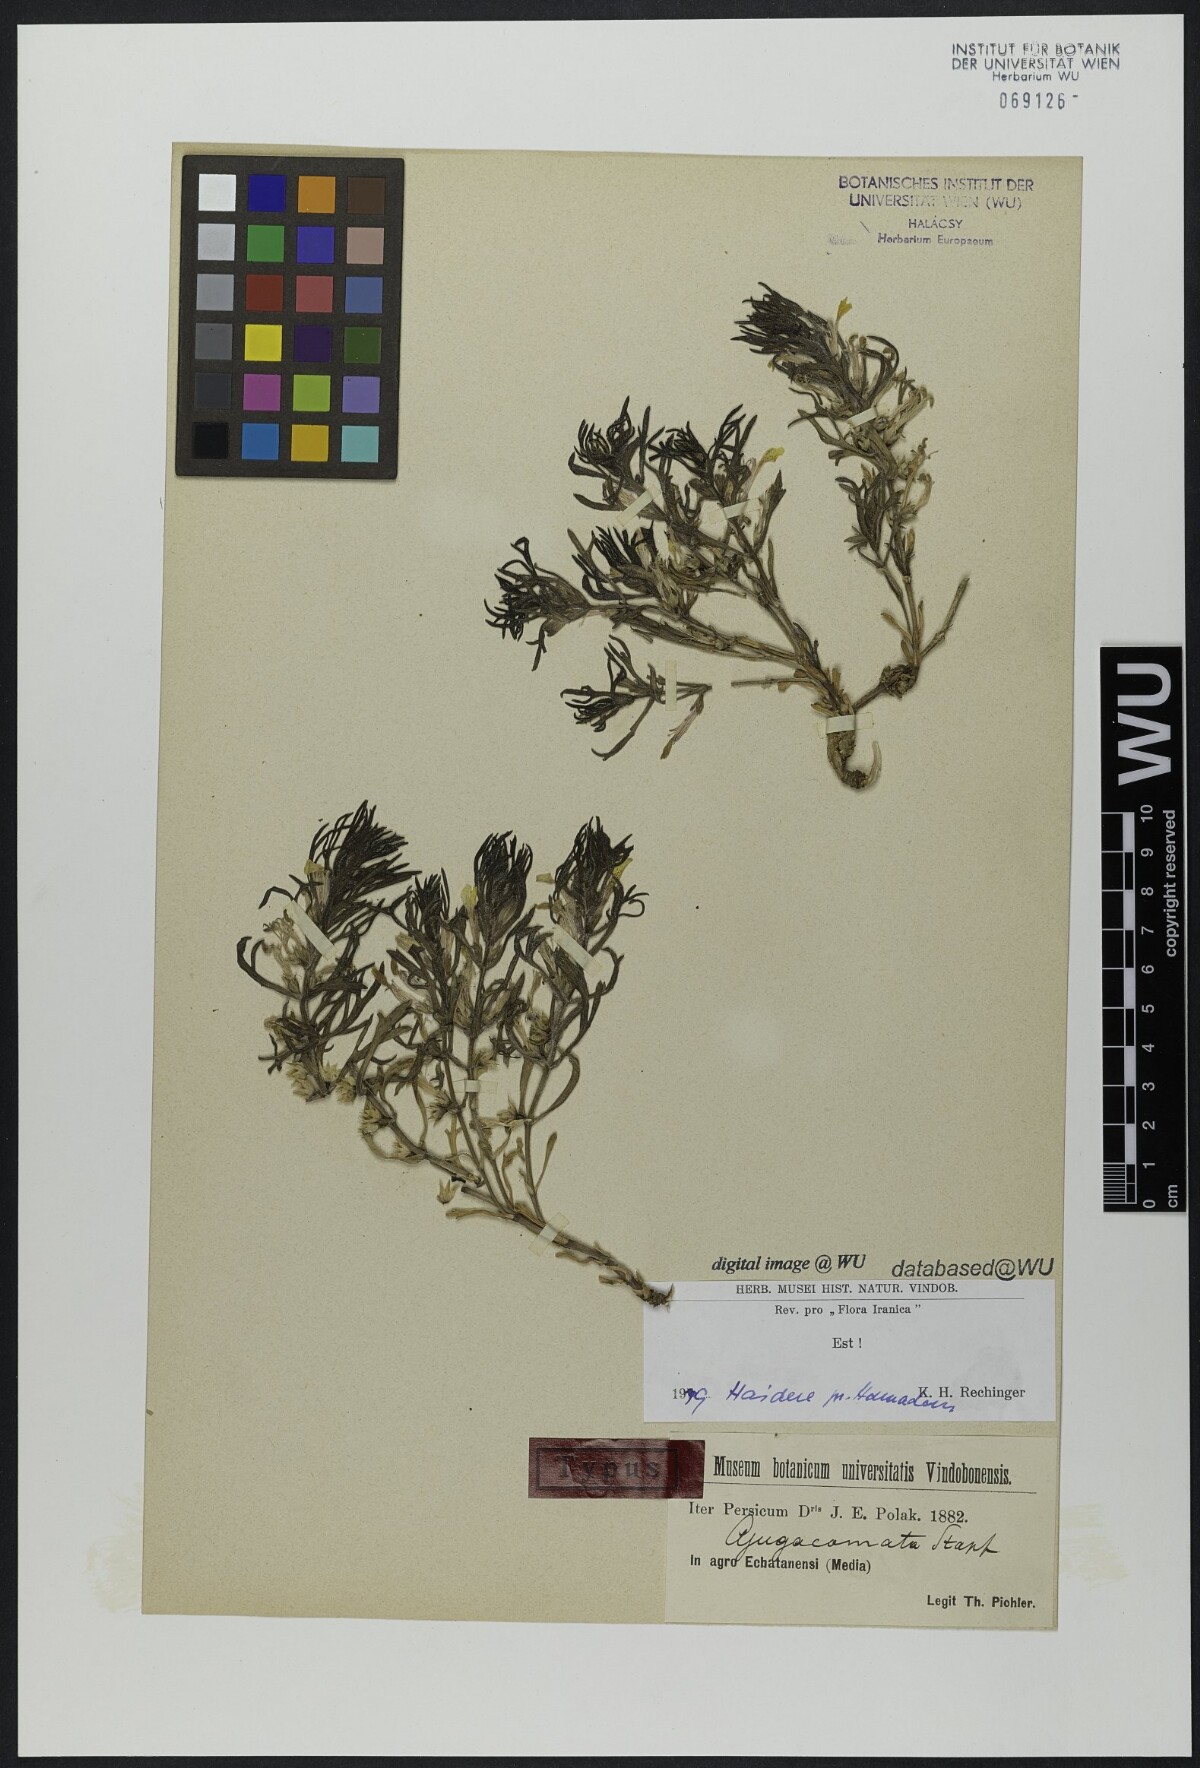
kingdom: Plantae
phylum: Tracheophyta
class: Magnoliopsida
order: Lamiales
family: Lamiaceae
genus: Ajuga
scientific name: Ajuga chamaepitys
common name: Ground-pine
